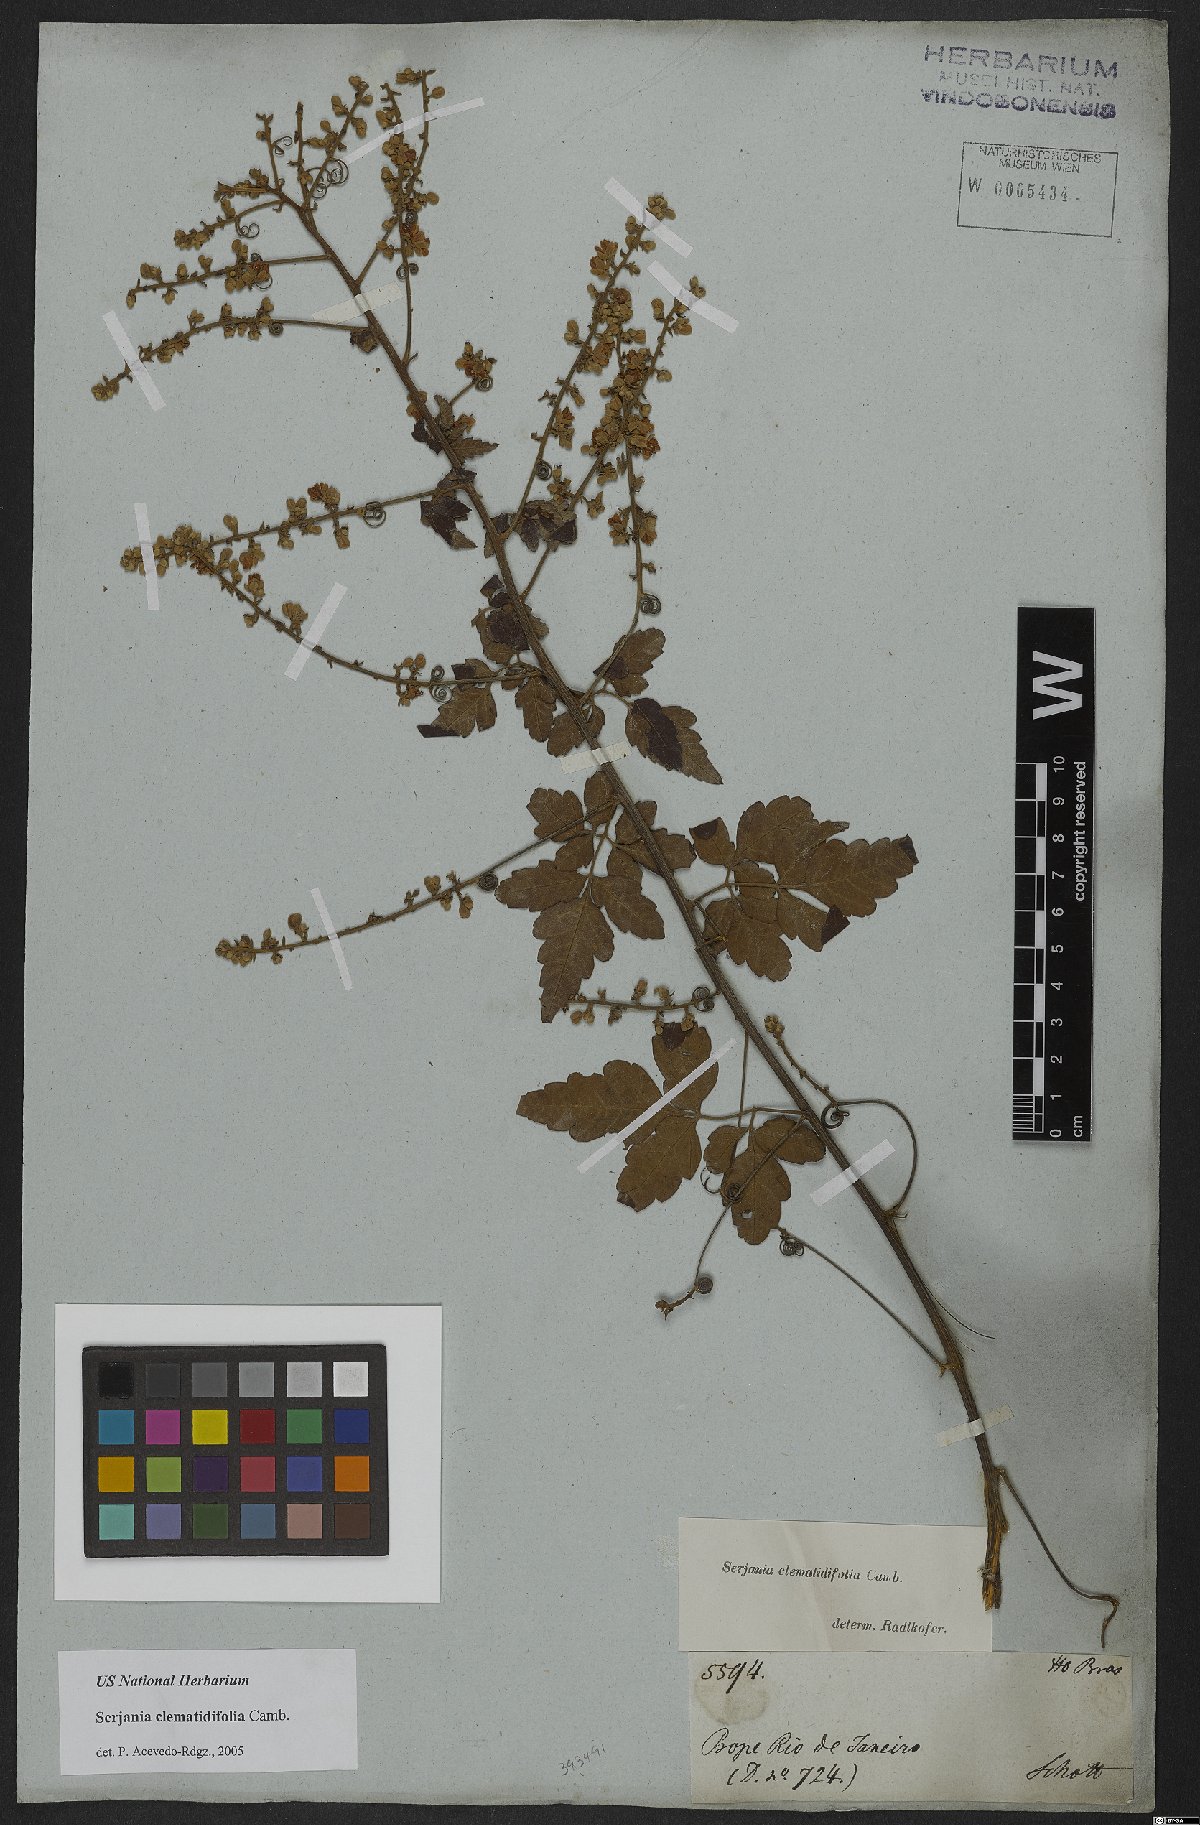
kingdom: Plantae
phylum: Tracheophyta
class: Magnoliopsida
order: Sapindales
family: Sapindaceae
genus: Serjania
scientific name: Serjania clematidifolia
